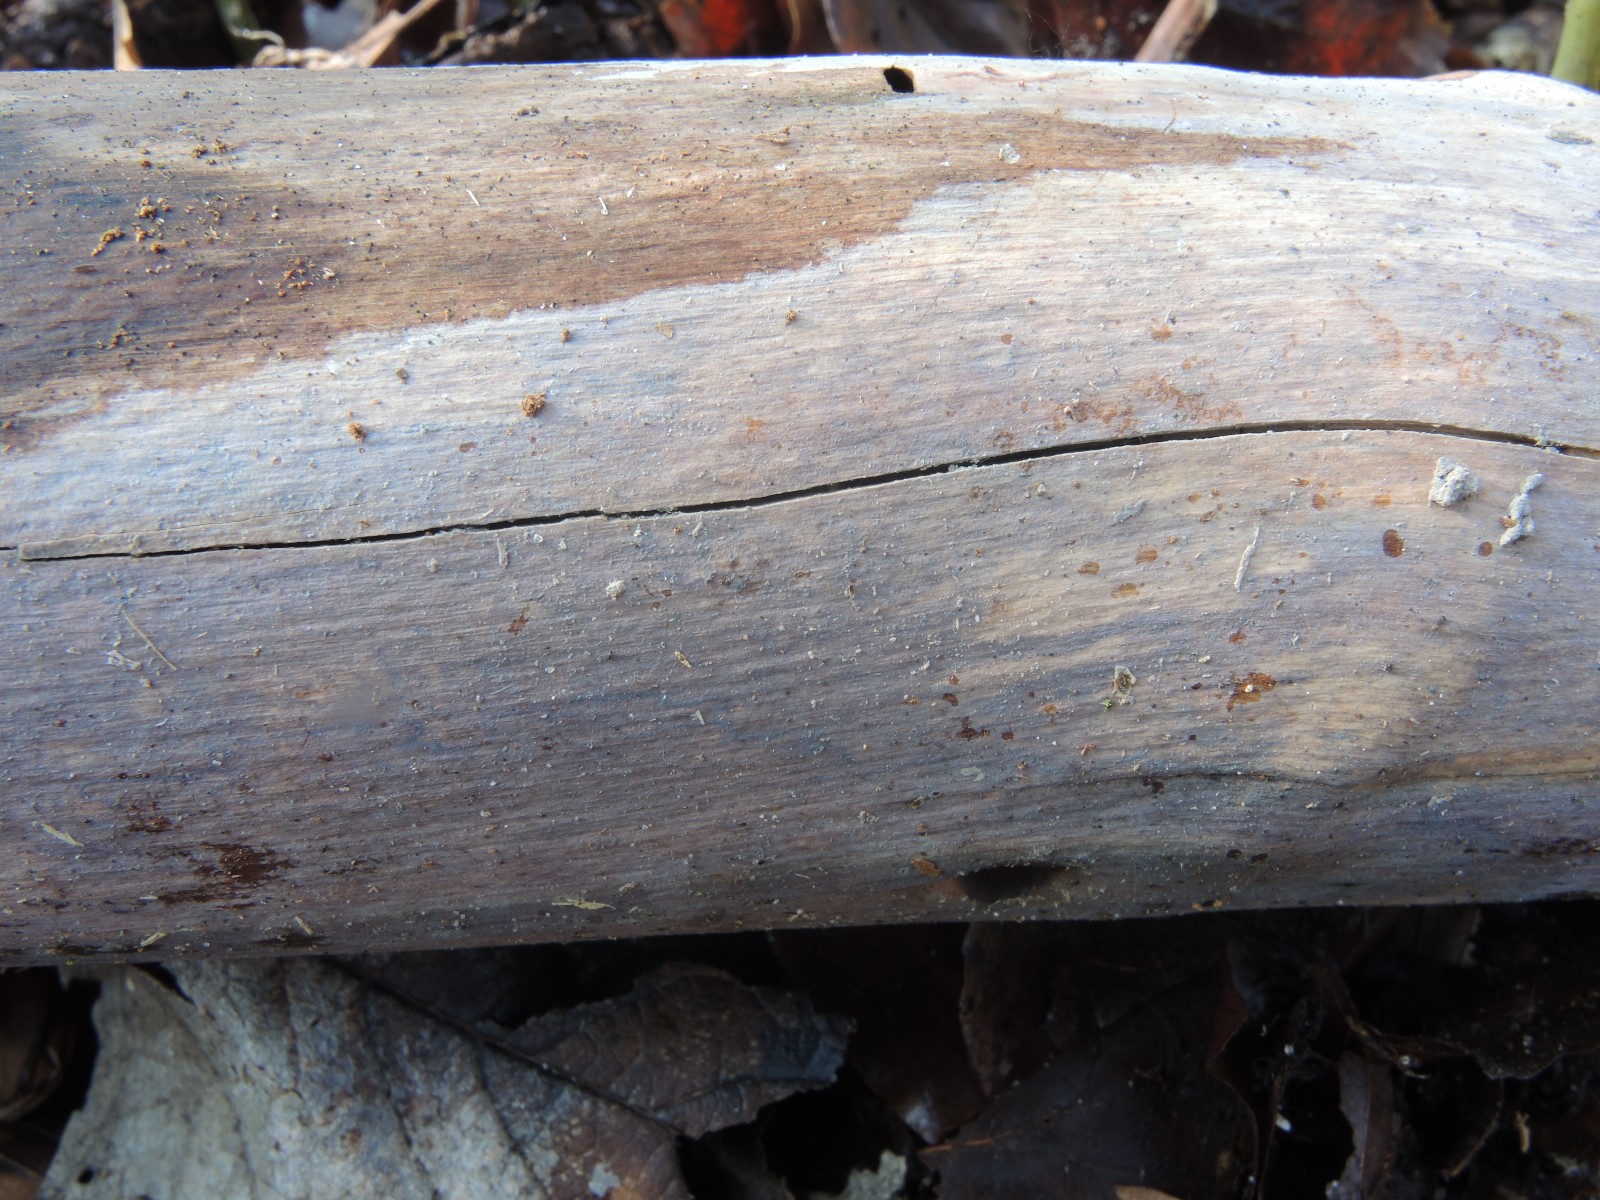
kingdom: Fungi
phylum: Basidiomycota
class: Tremellomycetes
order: Tremellales
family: Exidiaceae
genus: Exidiopsis
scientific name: Exidiopsis effusa
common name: smuk bævrehinde
